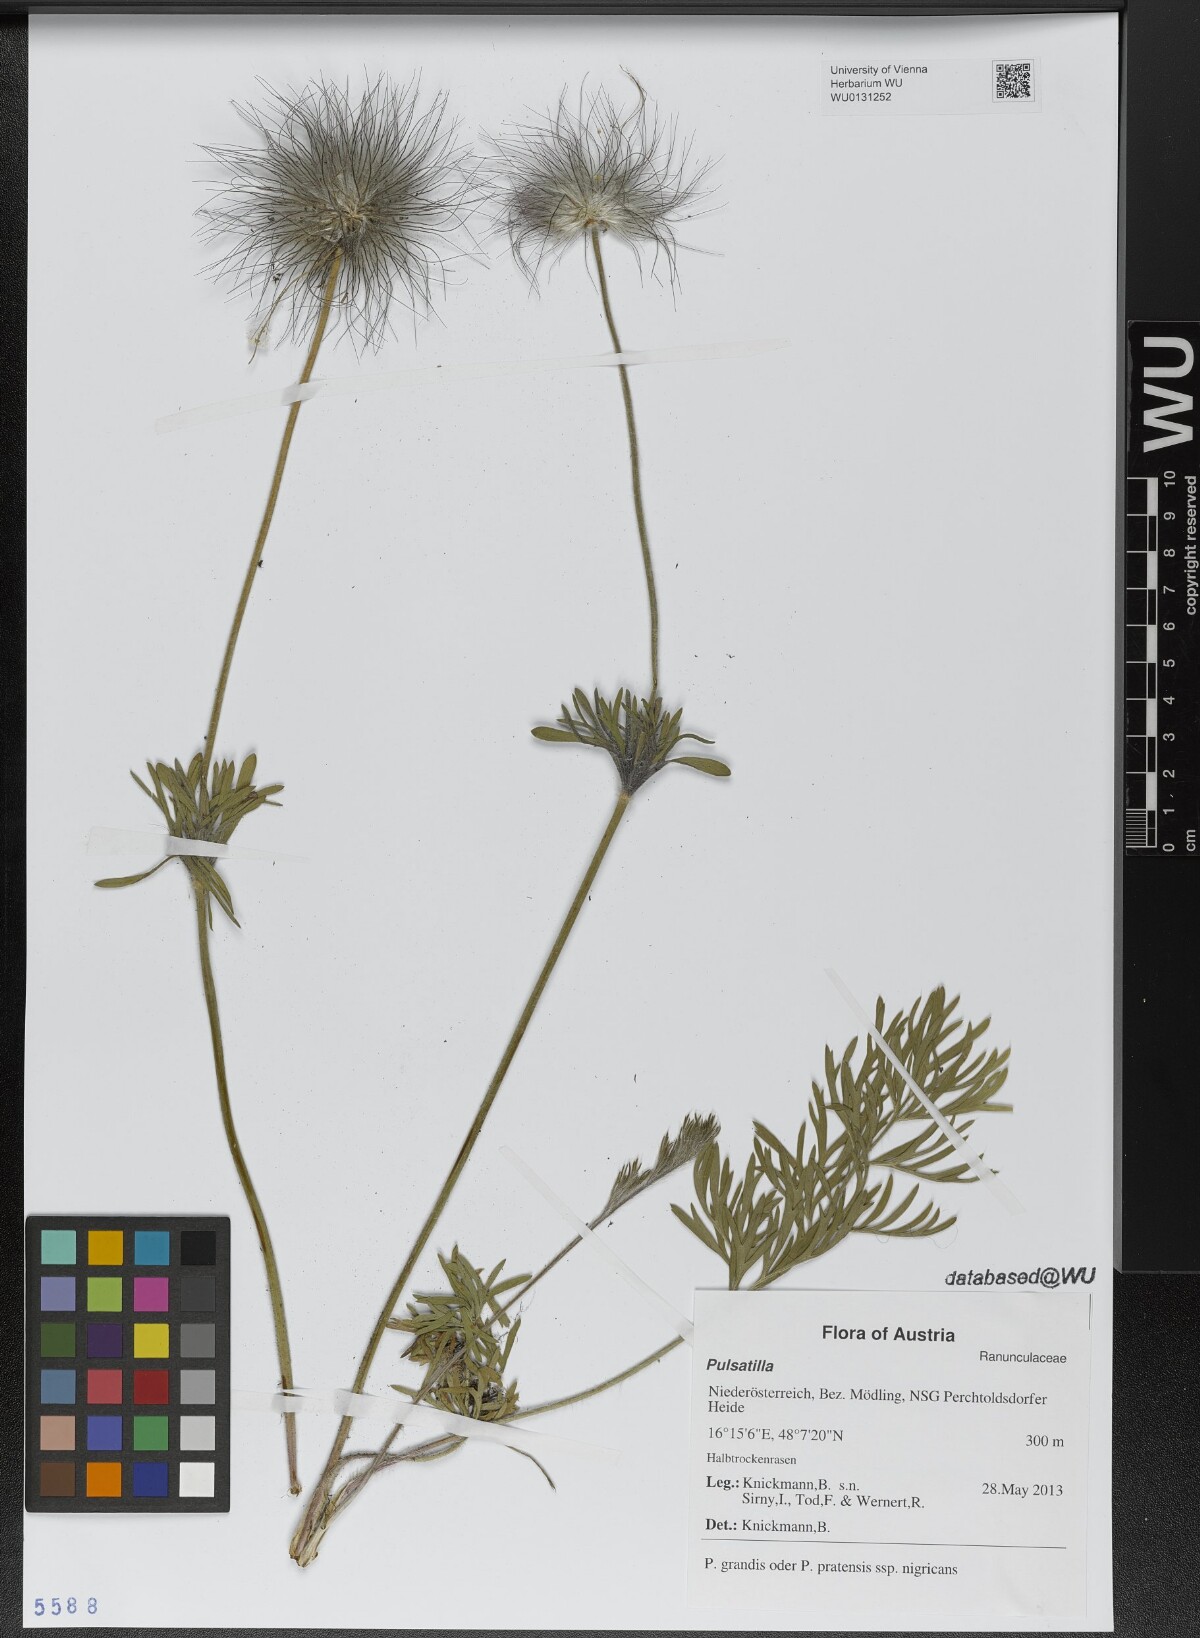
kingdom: Plantae
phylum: Tracheophyta
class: Magnoliopsida
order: Ranunculales
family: Ranunculaceae
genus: Pulsatilla
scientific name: Pulsatilla
